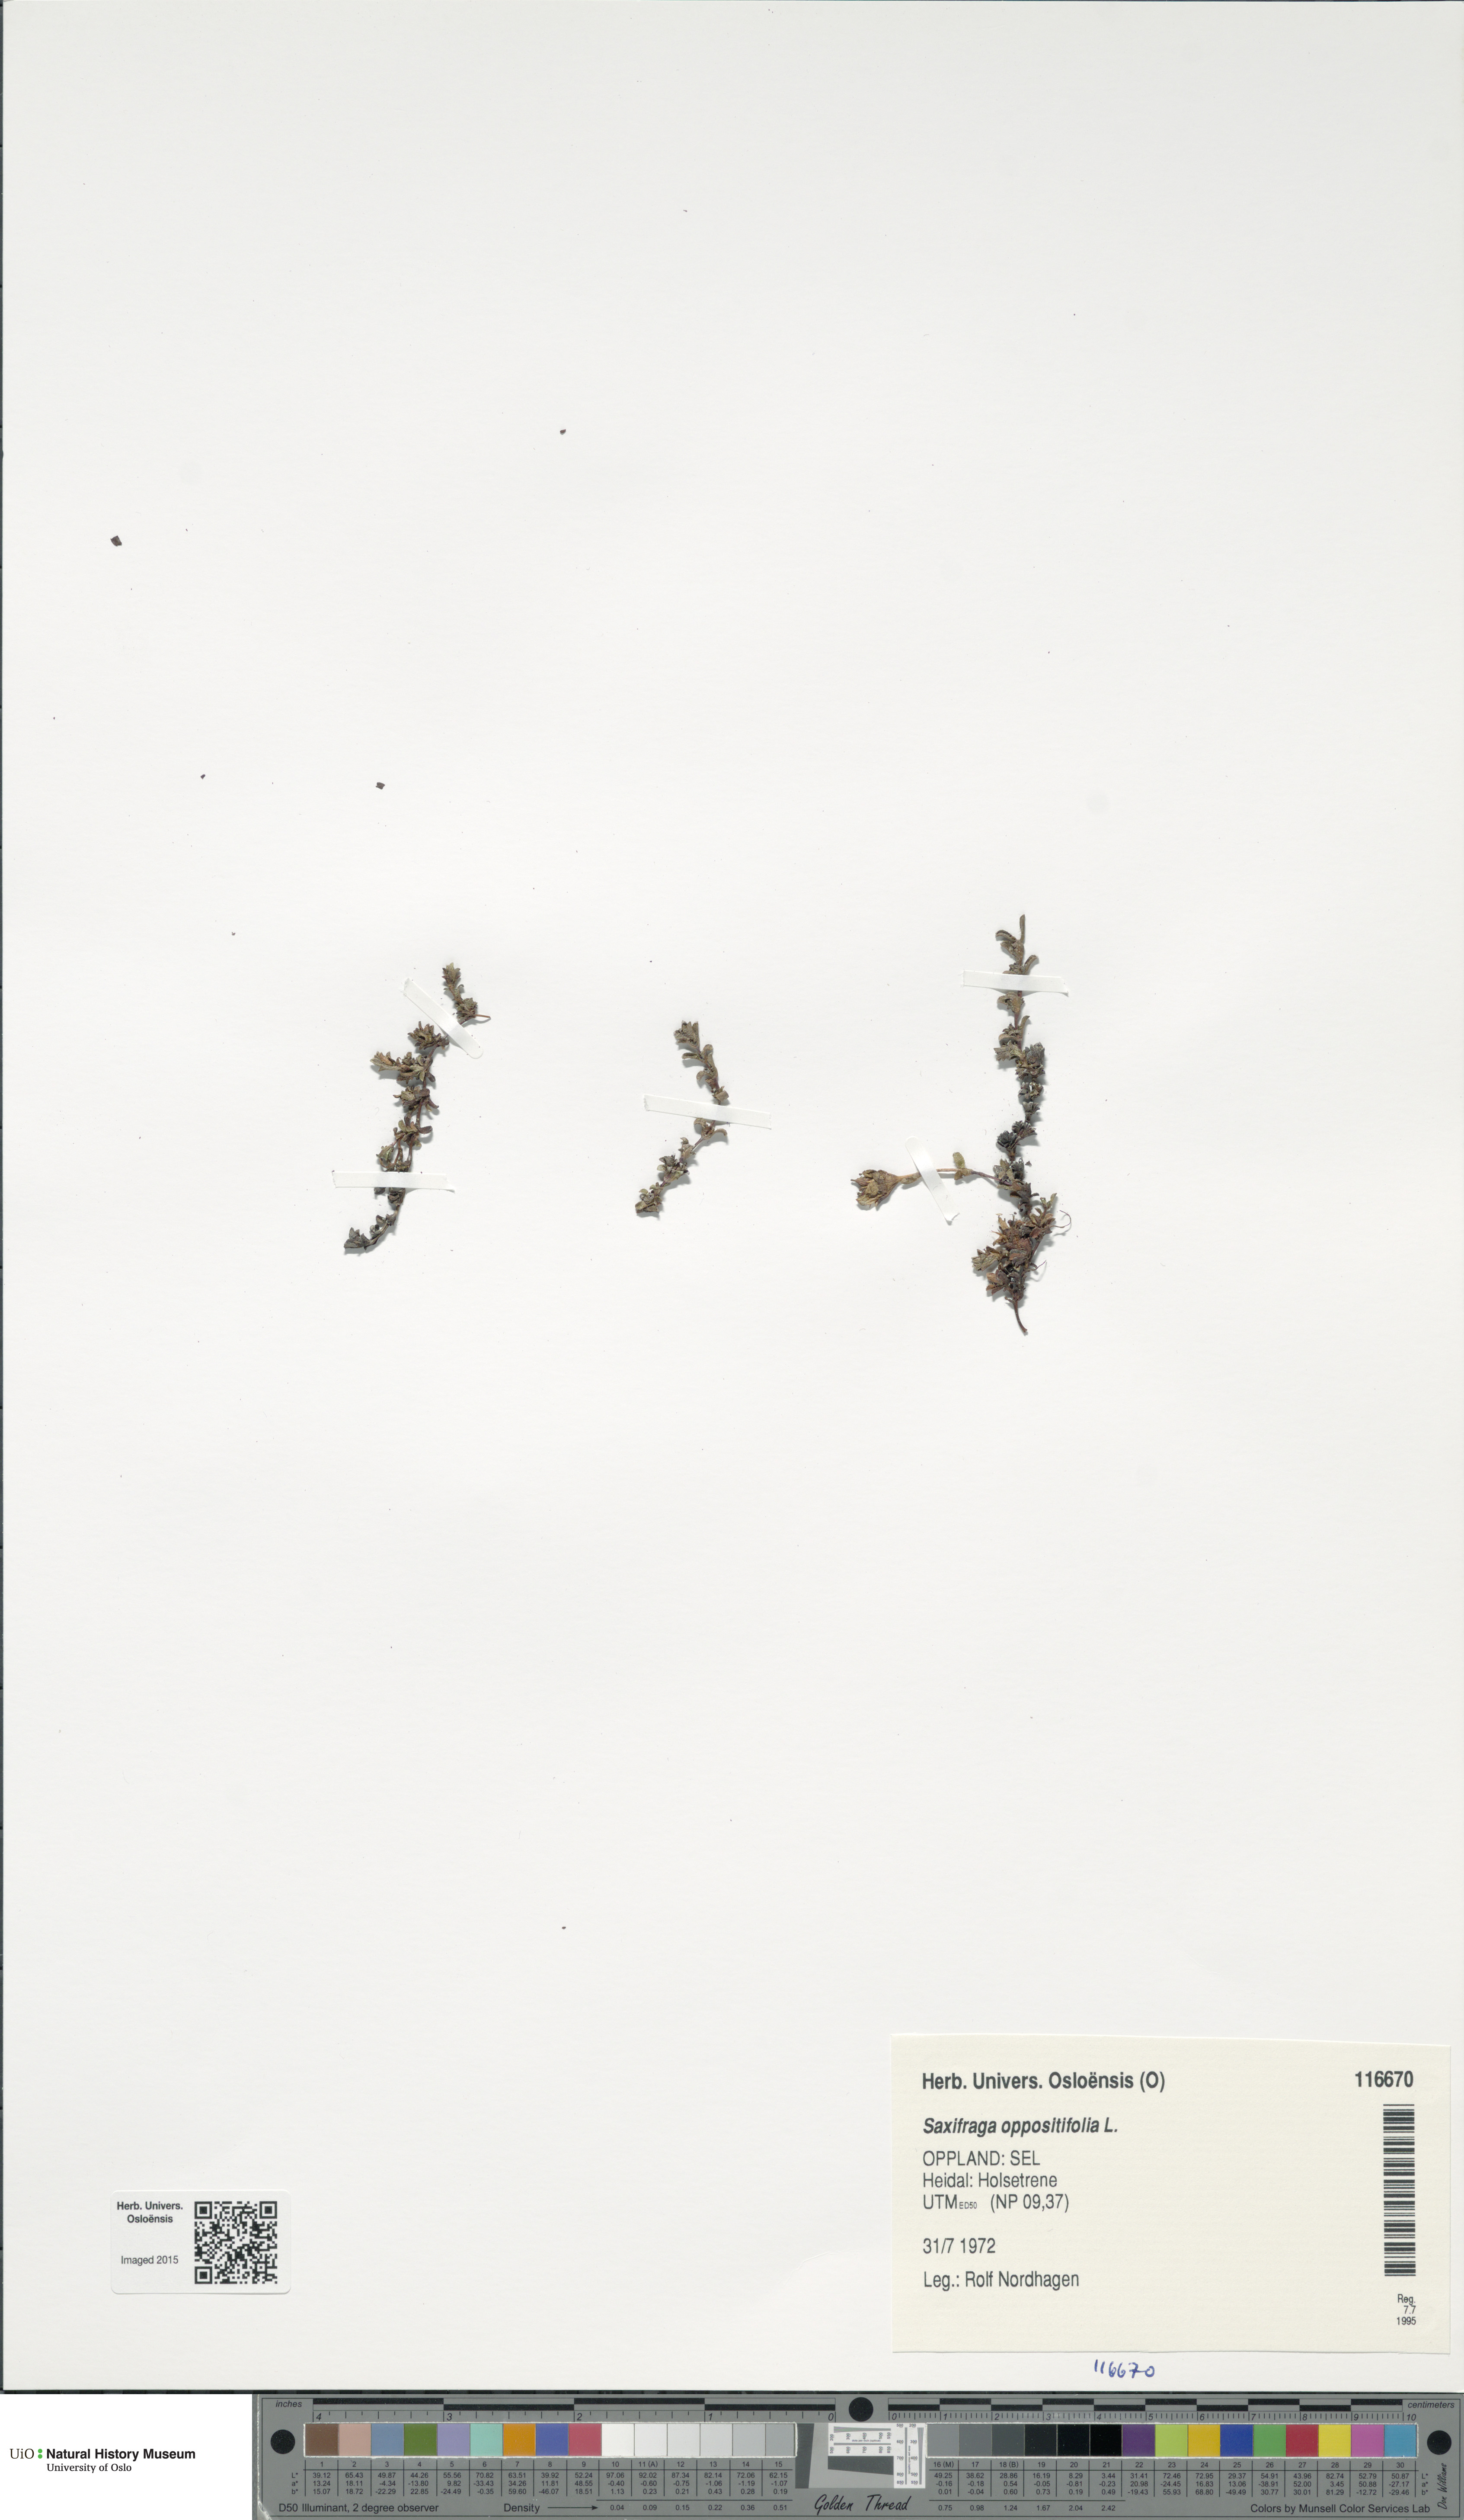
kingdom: Plantae
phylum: Tracheophyta
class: Magnoliopsida
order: Saxifragales
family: Saxifragaceae
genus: Saxifraga
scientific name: Saxifraga oppositifolia
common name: Purple saxifrage
